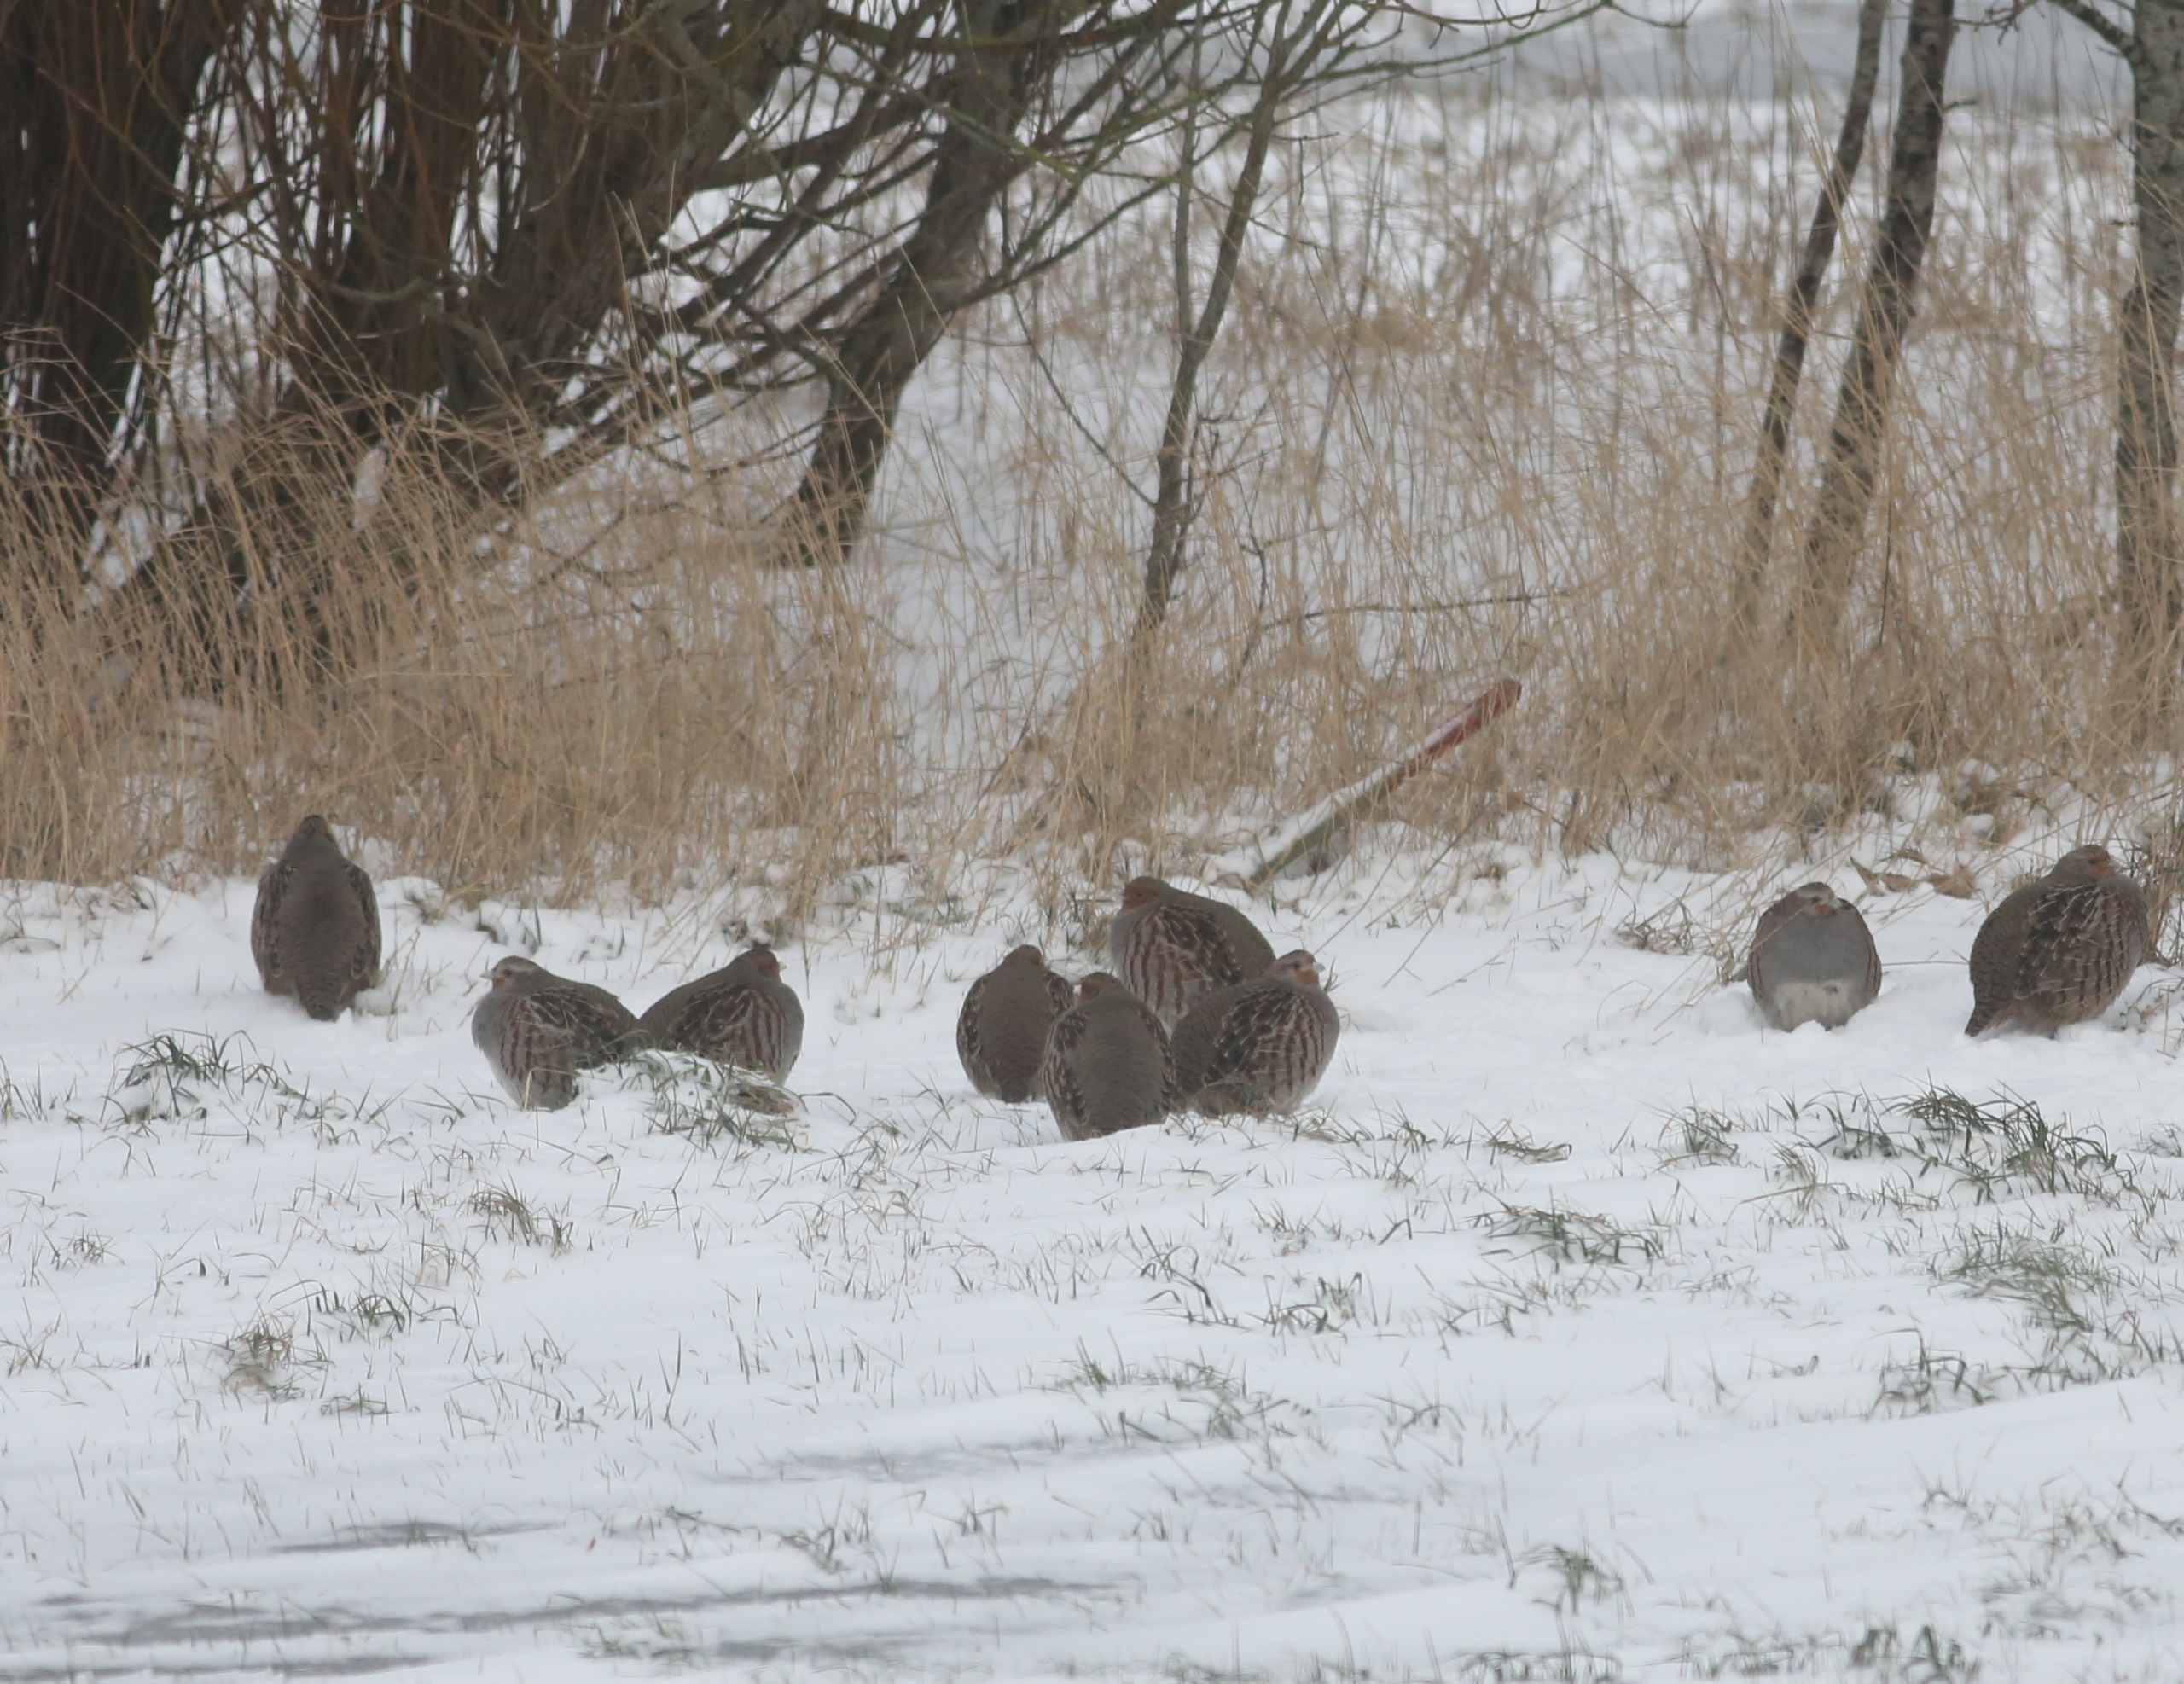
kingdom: Animalia
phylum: Chordata
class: Aves
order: Galliformes
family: Phasianidae
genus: Perdix
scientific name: Perdix perdix
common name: Agerhøne
